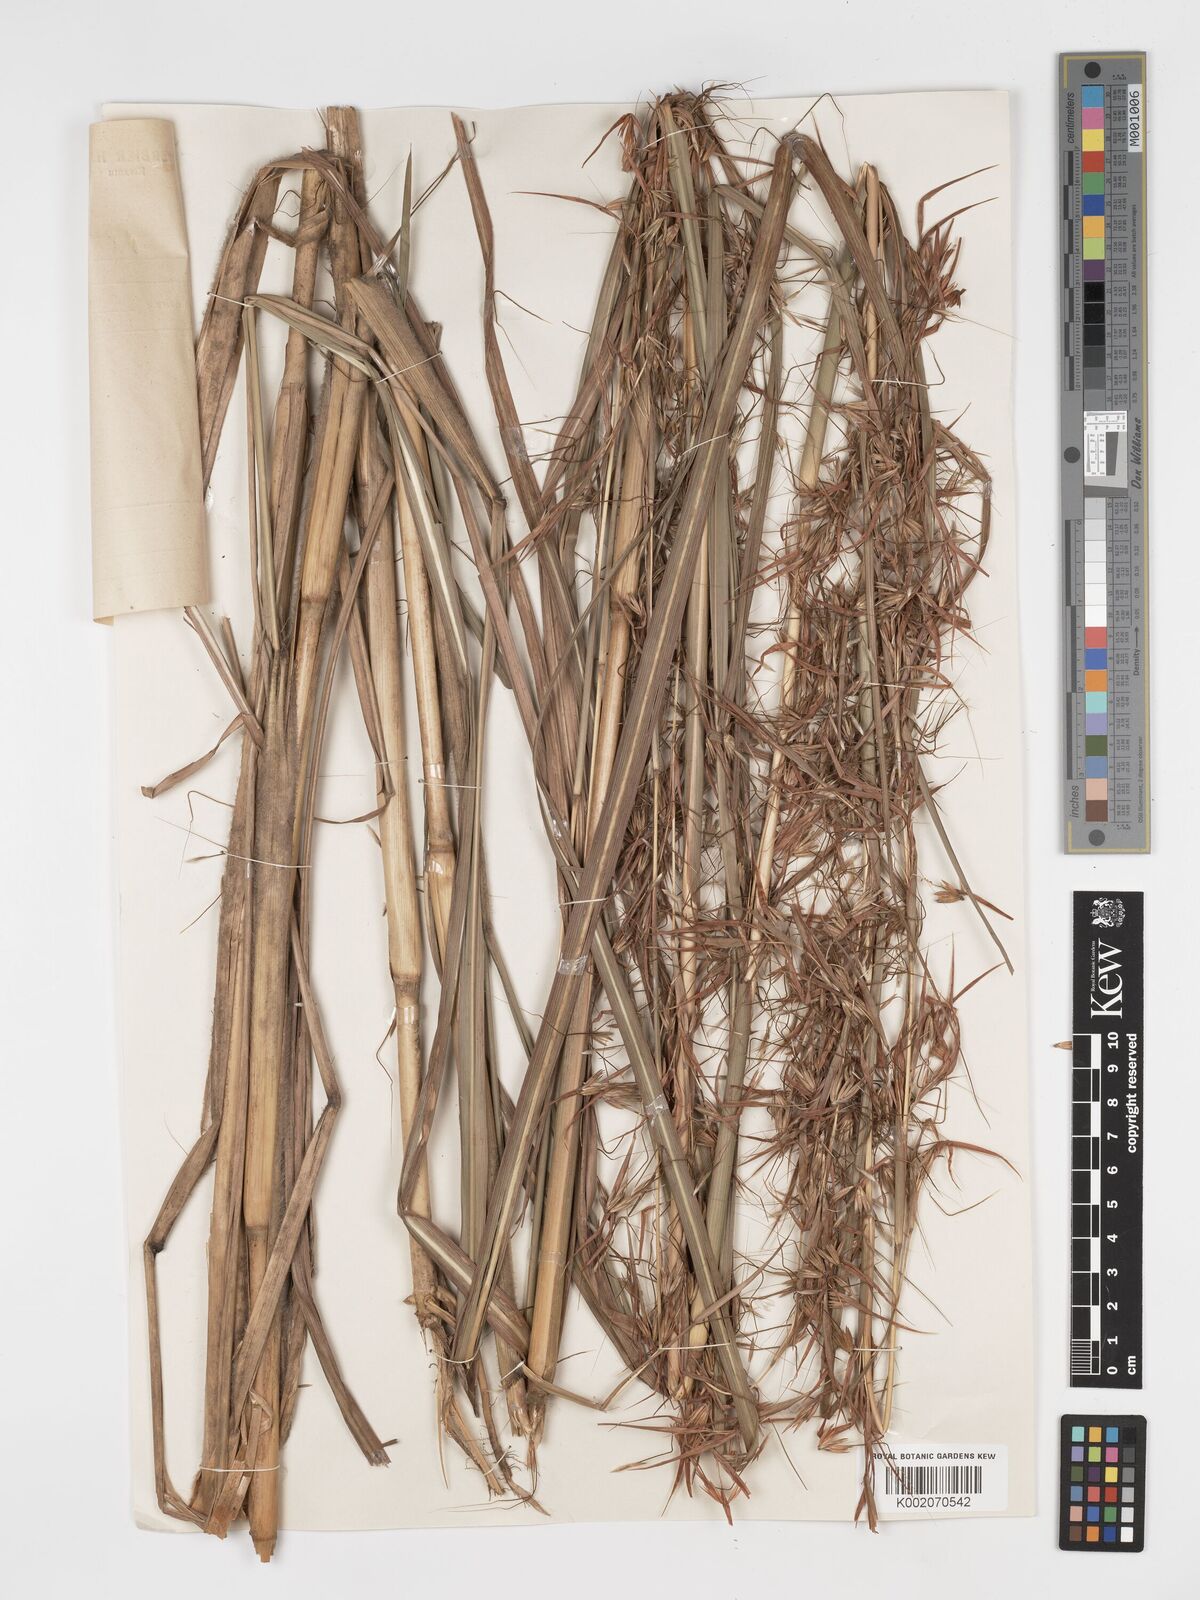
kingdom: Plantae
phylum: Tracheophyta
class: Liliopsida
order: Poales
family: Poaceae
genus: Hyparrhenia
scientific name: Hyparrhenia diplandra
